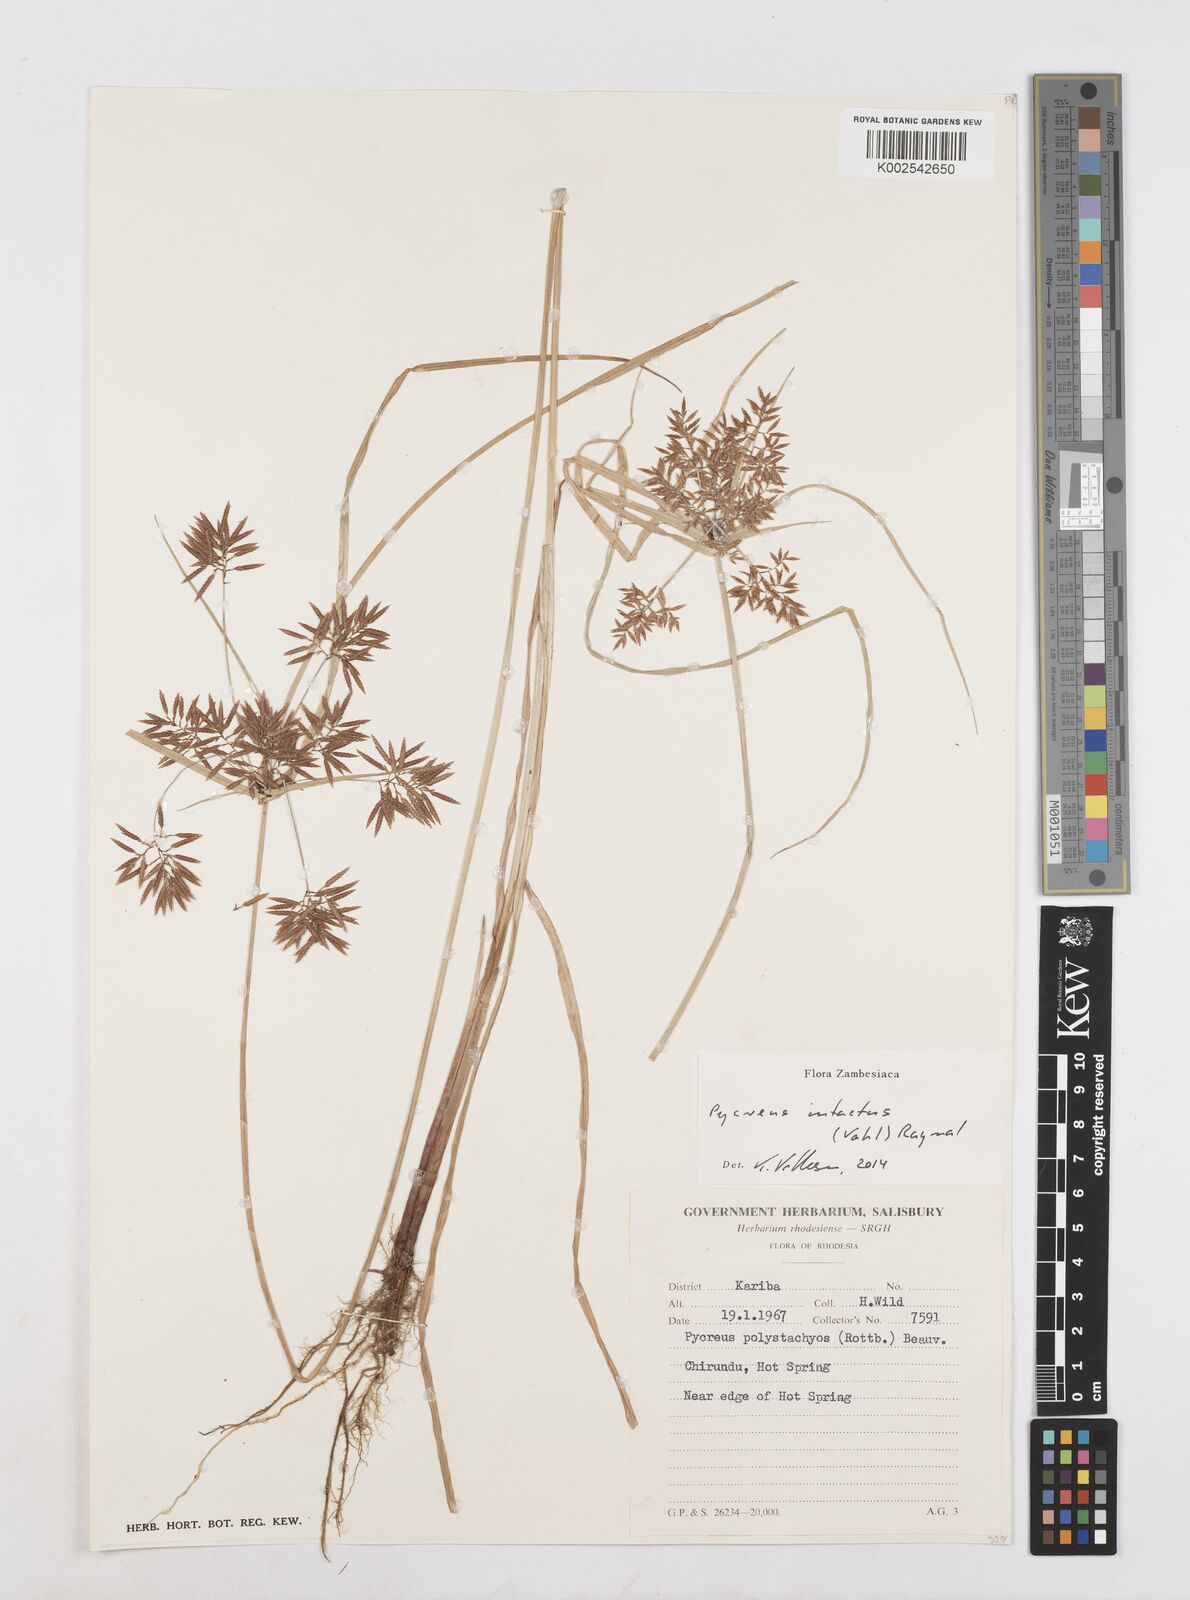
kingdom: Plantae
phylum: Tracheophyta
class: Liliopsida
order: Poales
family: Cyperaceae
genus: Cyperus
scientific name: Cyperus intactus
